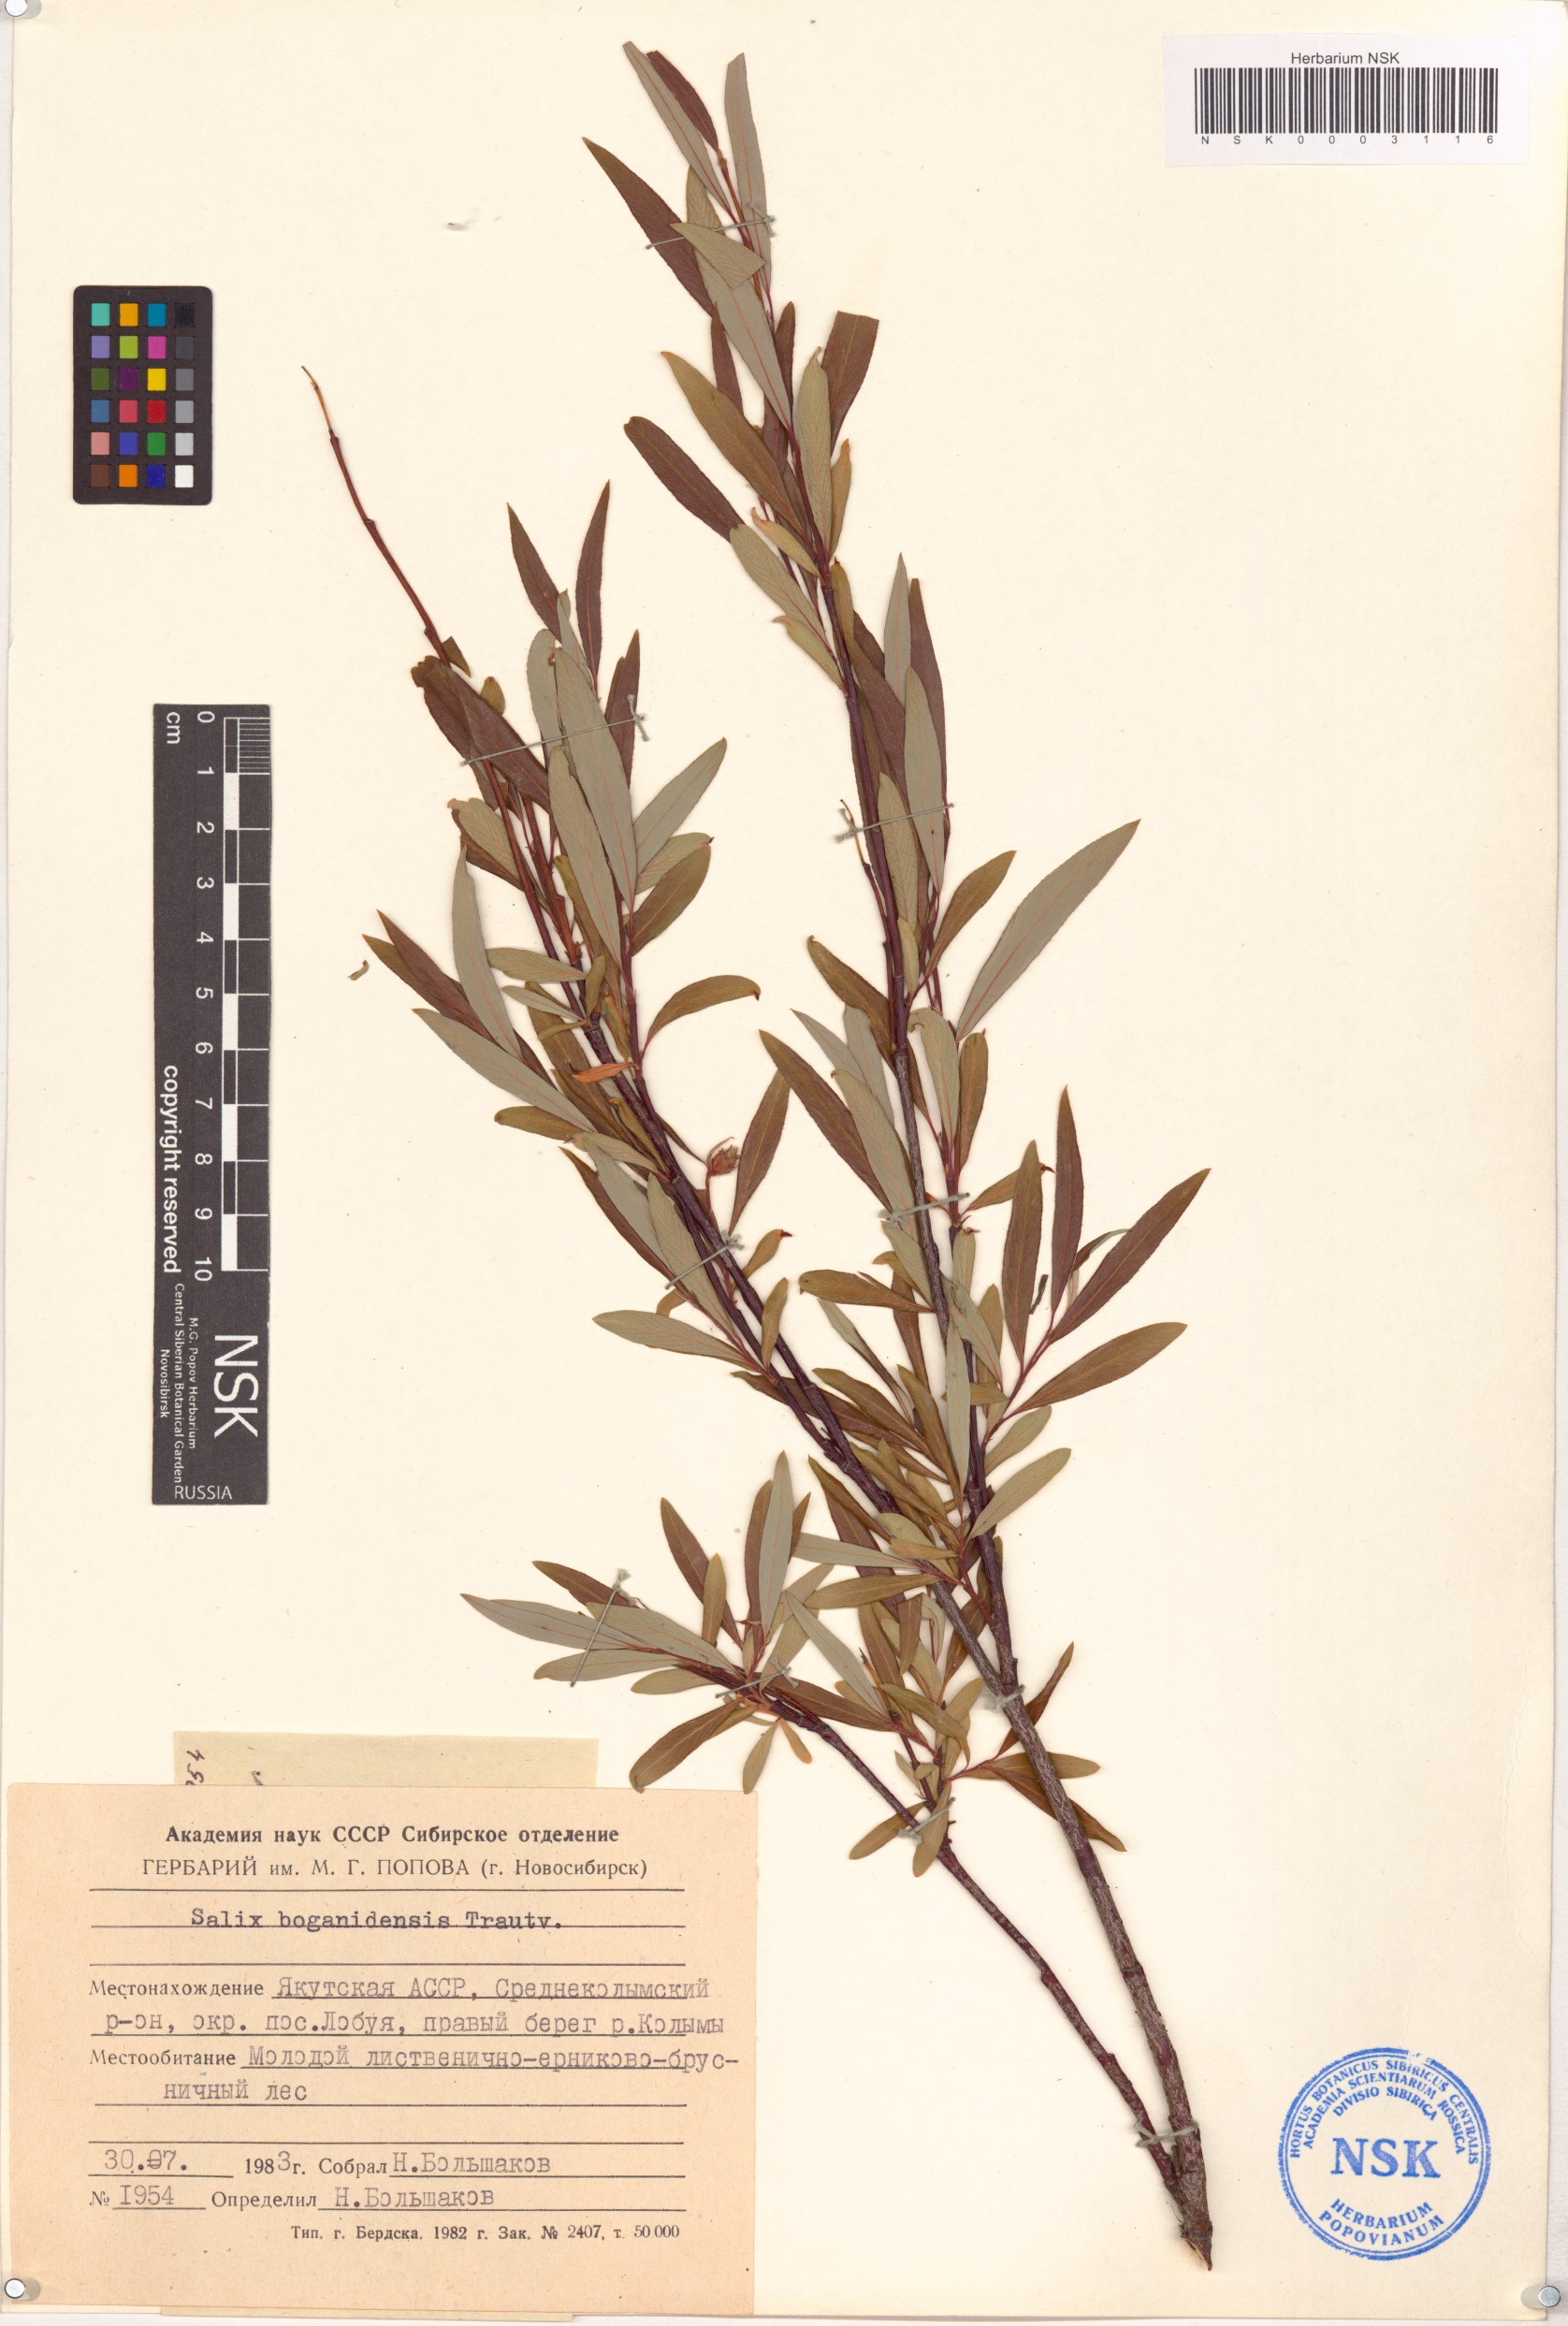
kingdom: Plantae
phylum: Tracheophyta
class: Magnoliopsida
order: Malpighiales
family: Salicaceae
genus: Salix
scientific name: Salix boganidensis
